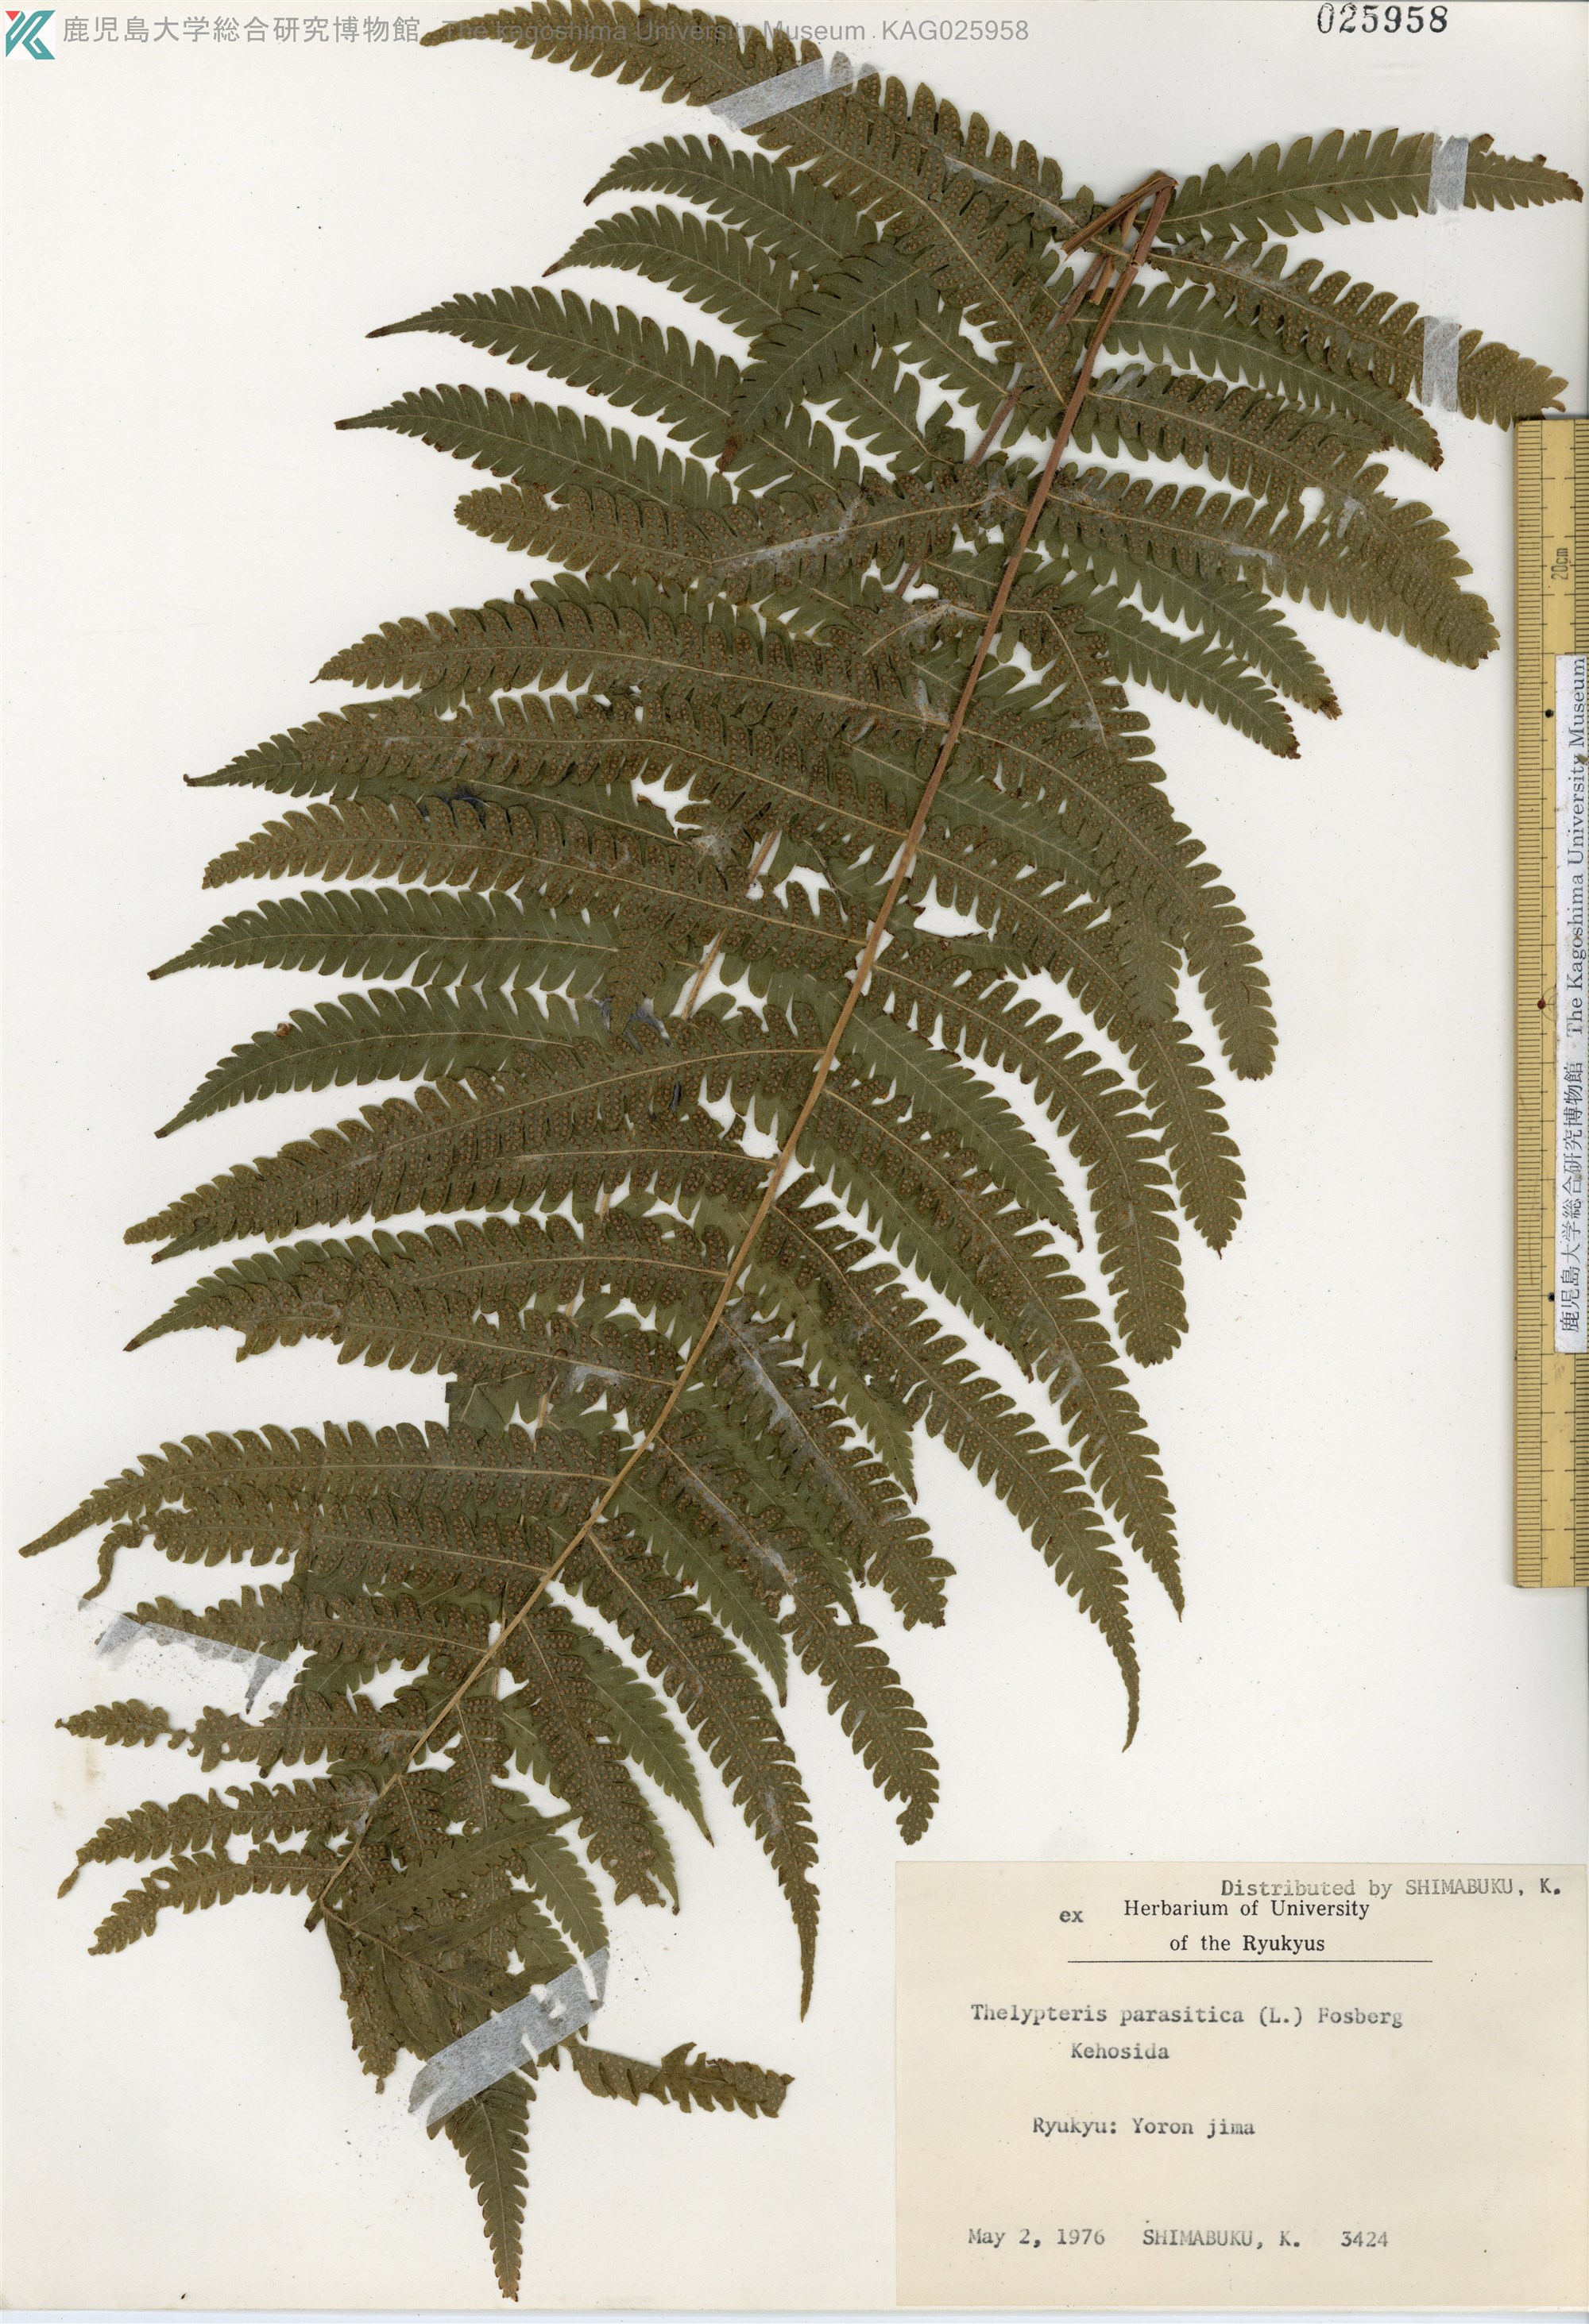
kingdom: Plantae
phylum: Tracheophyta
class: Polypodiopsida
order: Polypodiales
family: Thelypteridaceae
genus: Christella
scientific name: Christella parasitica
